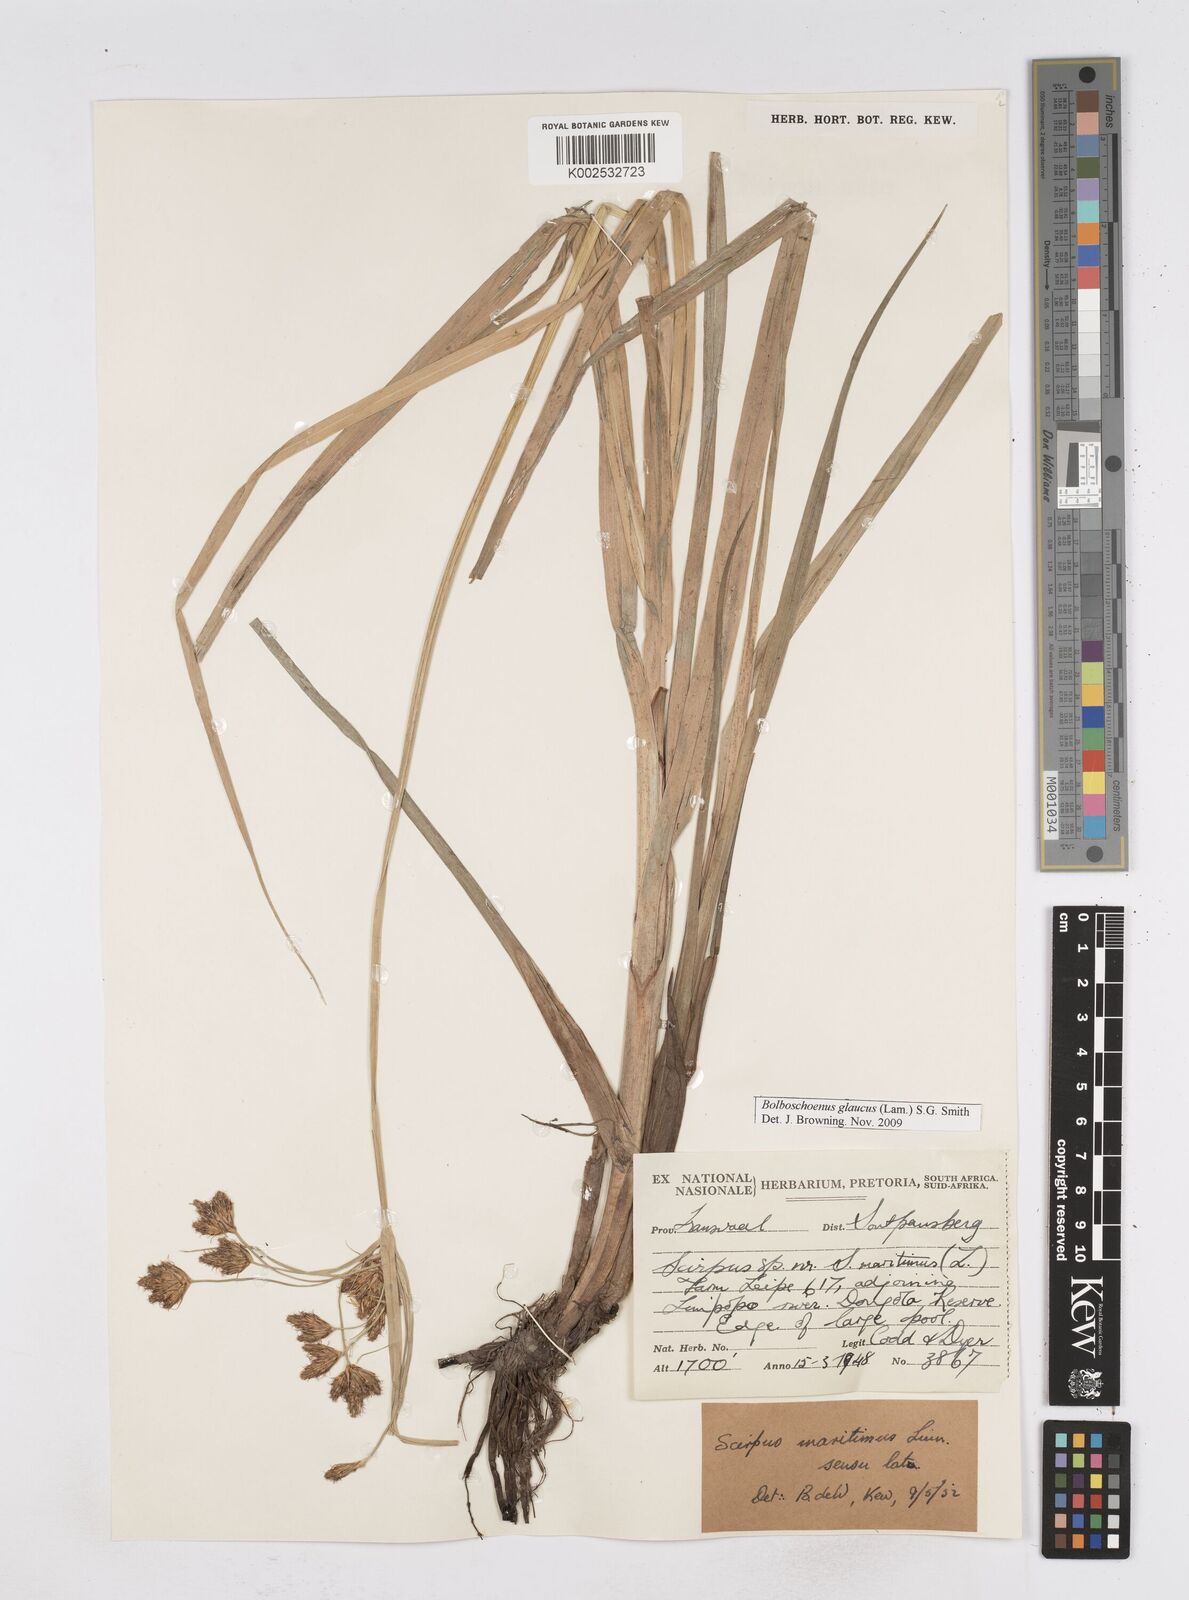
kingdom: Plantae
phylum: Tracheophyta
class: Liliopsida
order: Poales
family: Cyperaceae
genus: Bolboschoenus
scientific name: Bolboschoenus maritimus
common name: Sea club-rush
